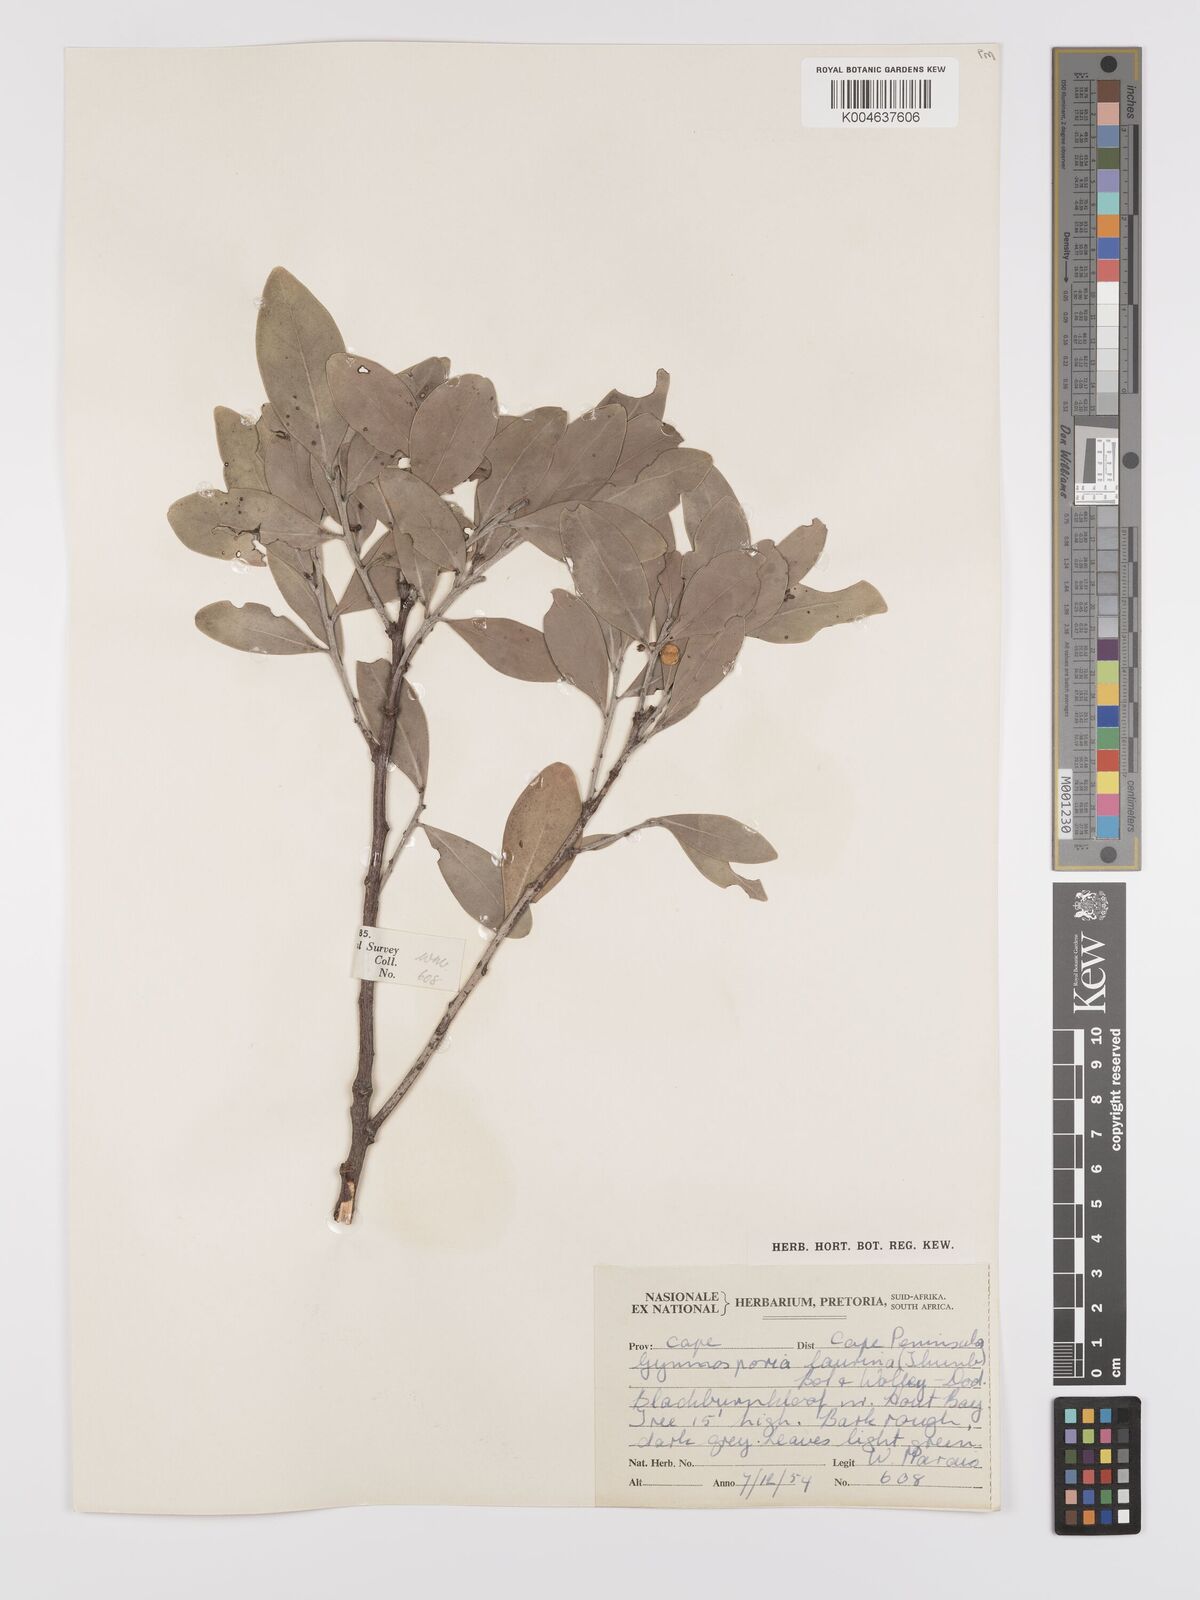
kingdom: Plantae
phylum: Tracheophyta
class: Magnoliopsida
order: Celastrales
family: Celastraceae
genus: Monteverdia
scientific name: Monteverdia laurina
